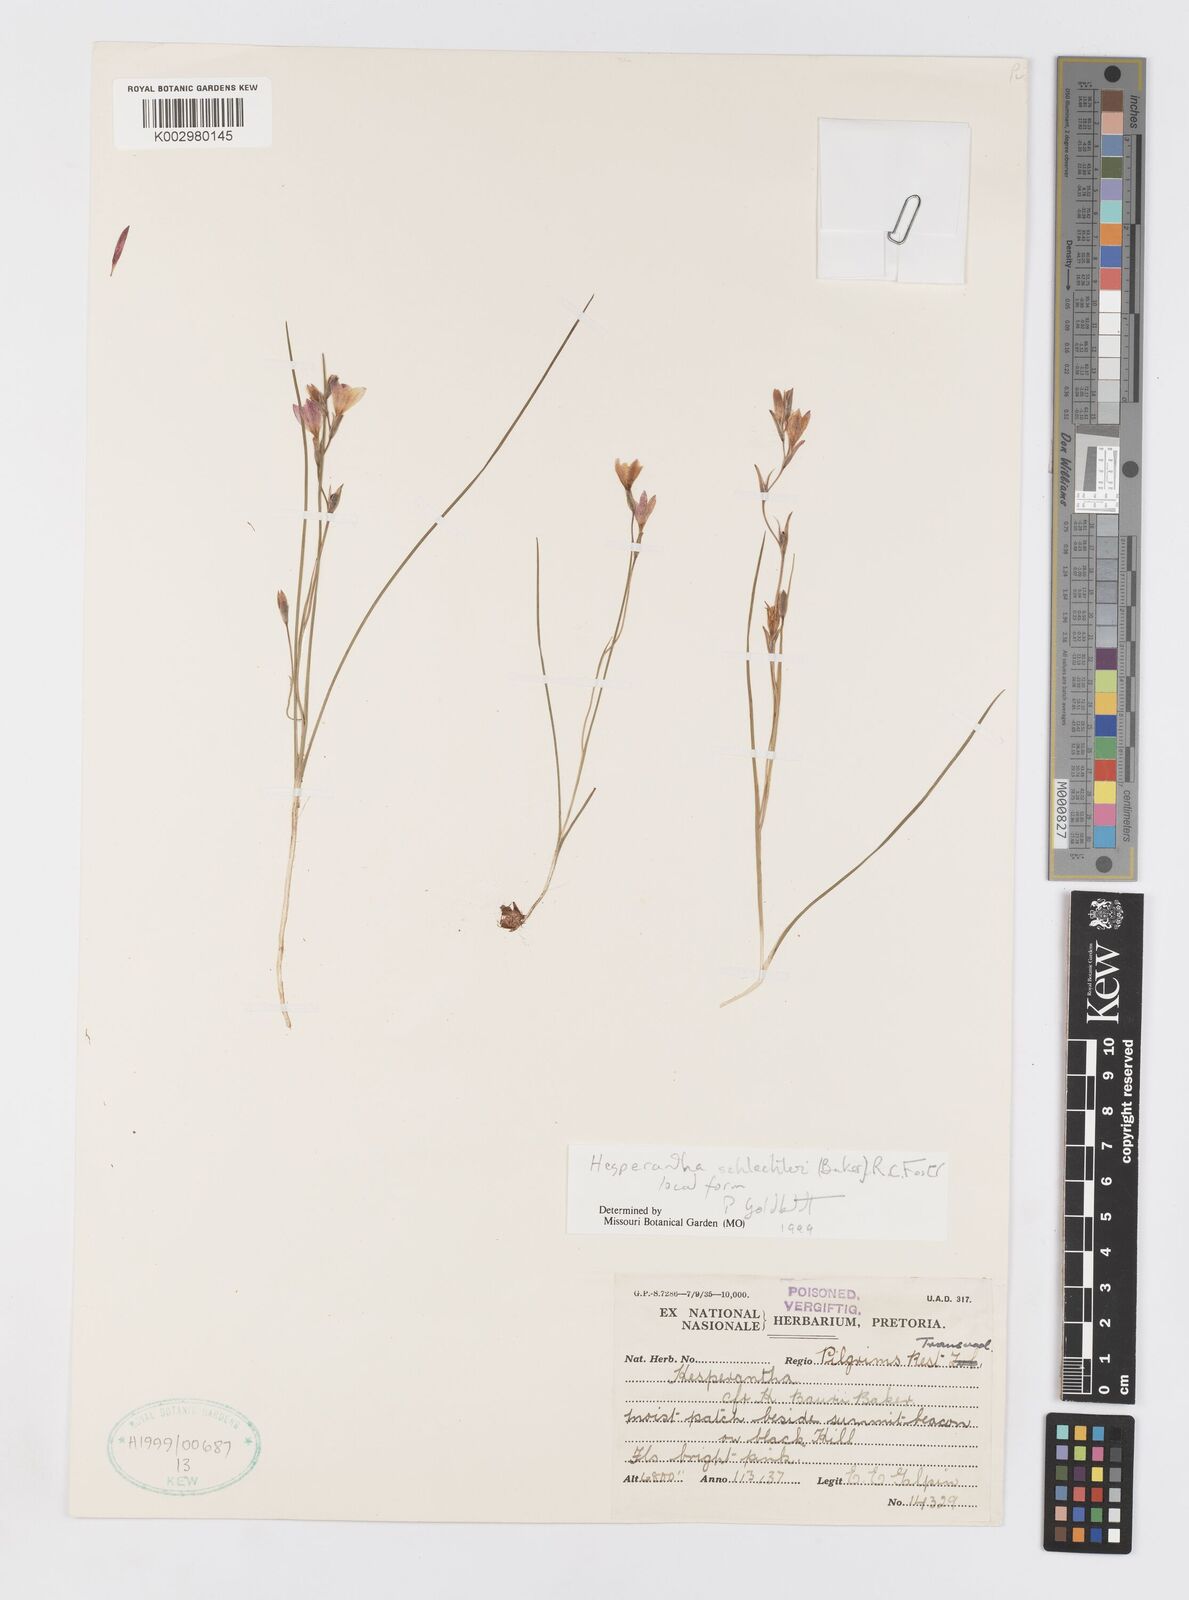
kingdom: Plantae
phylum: Tracheophyta
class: Liliopsida
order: Asparagales
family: Iridaceae
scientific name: Iridaceae
